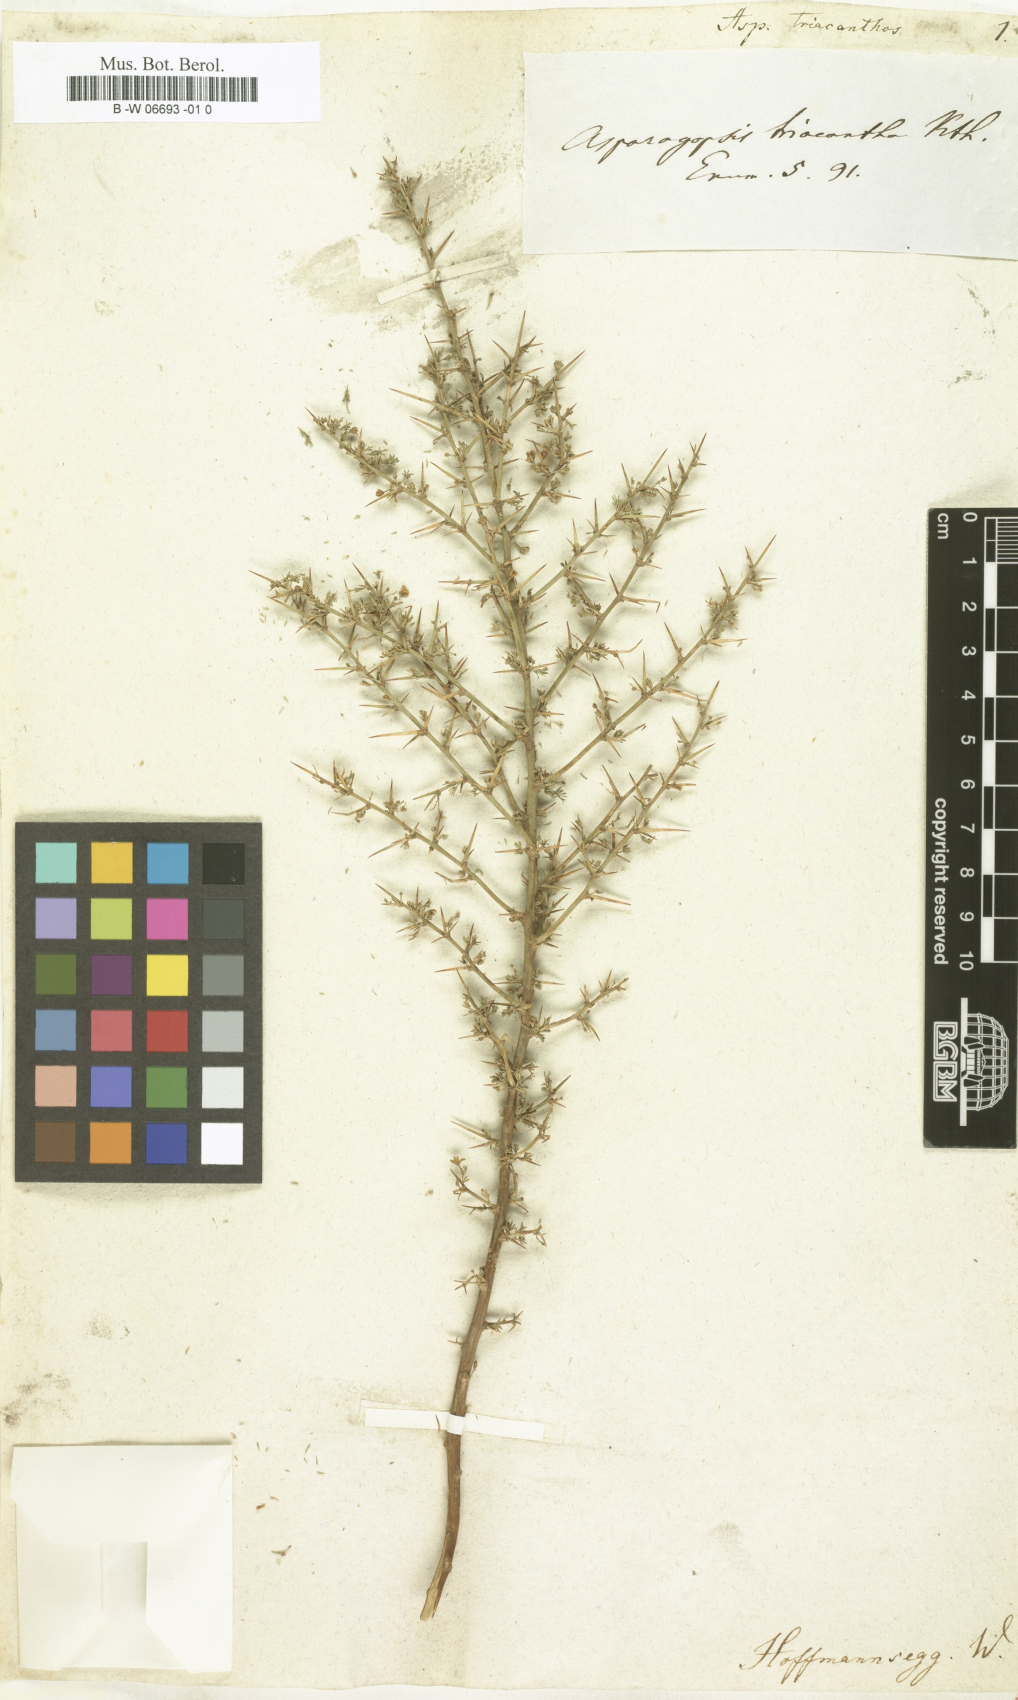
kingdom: Plantae
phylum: Tracheophyta
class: Liliopsida
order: Asparagales
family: Asparagaceae
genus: Asparagus
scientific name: Asparagus
